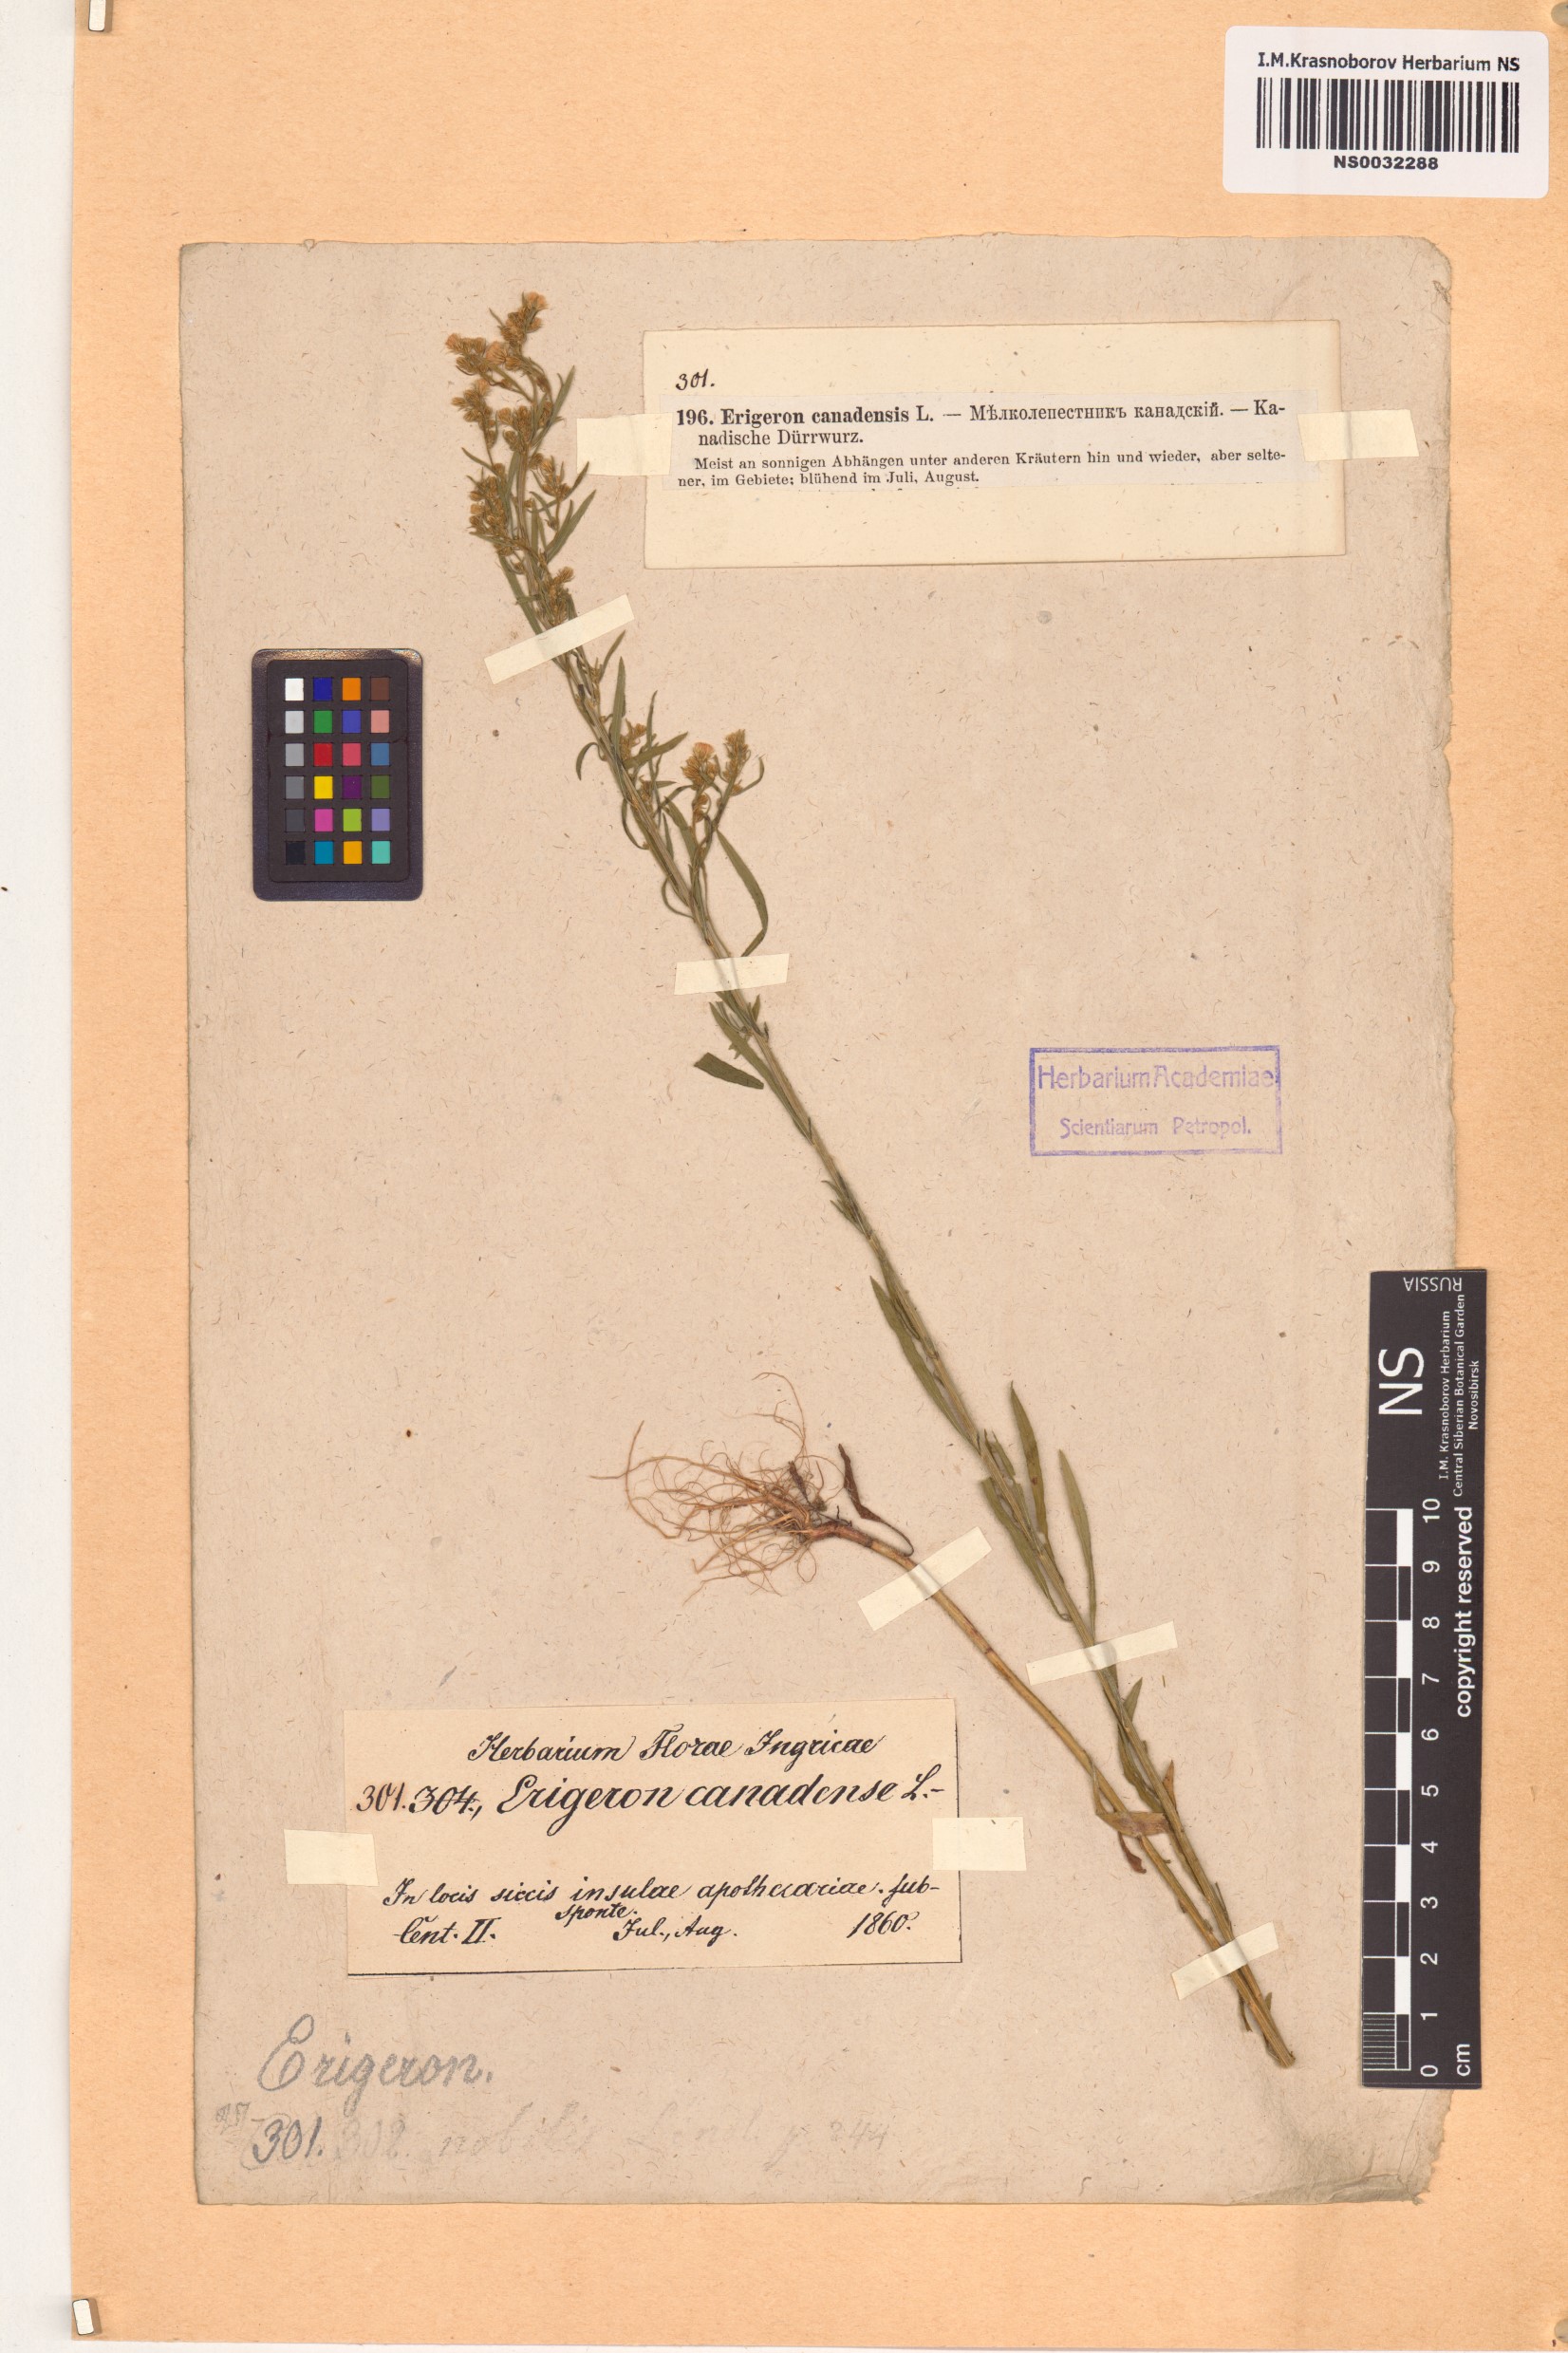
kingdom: Plantae
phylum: Tracheophyta
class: Magnoliopsida
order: Asterales
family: Asteraceae
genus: Erigeron
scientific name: Erigeron canadensis
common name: Canadian fleabane
